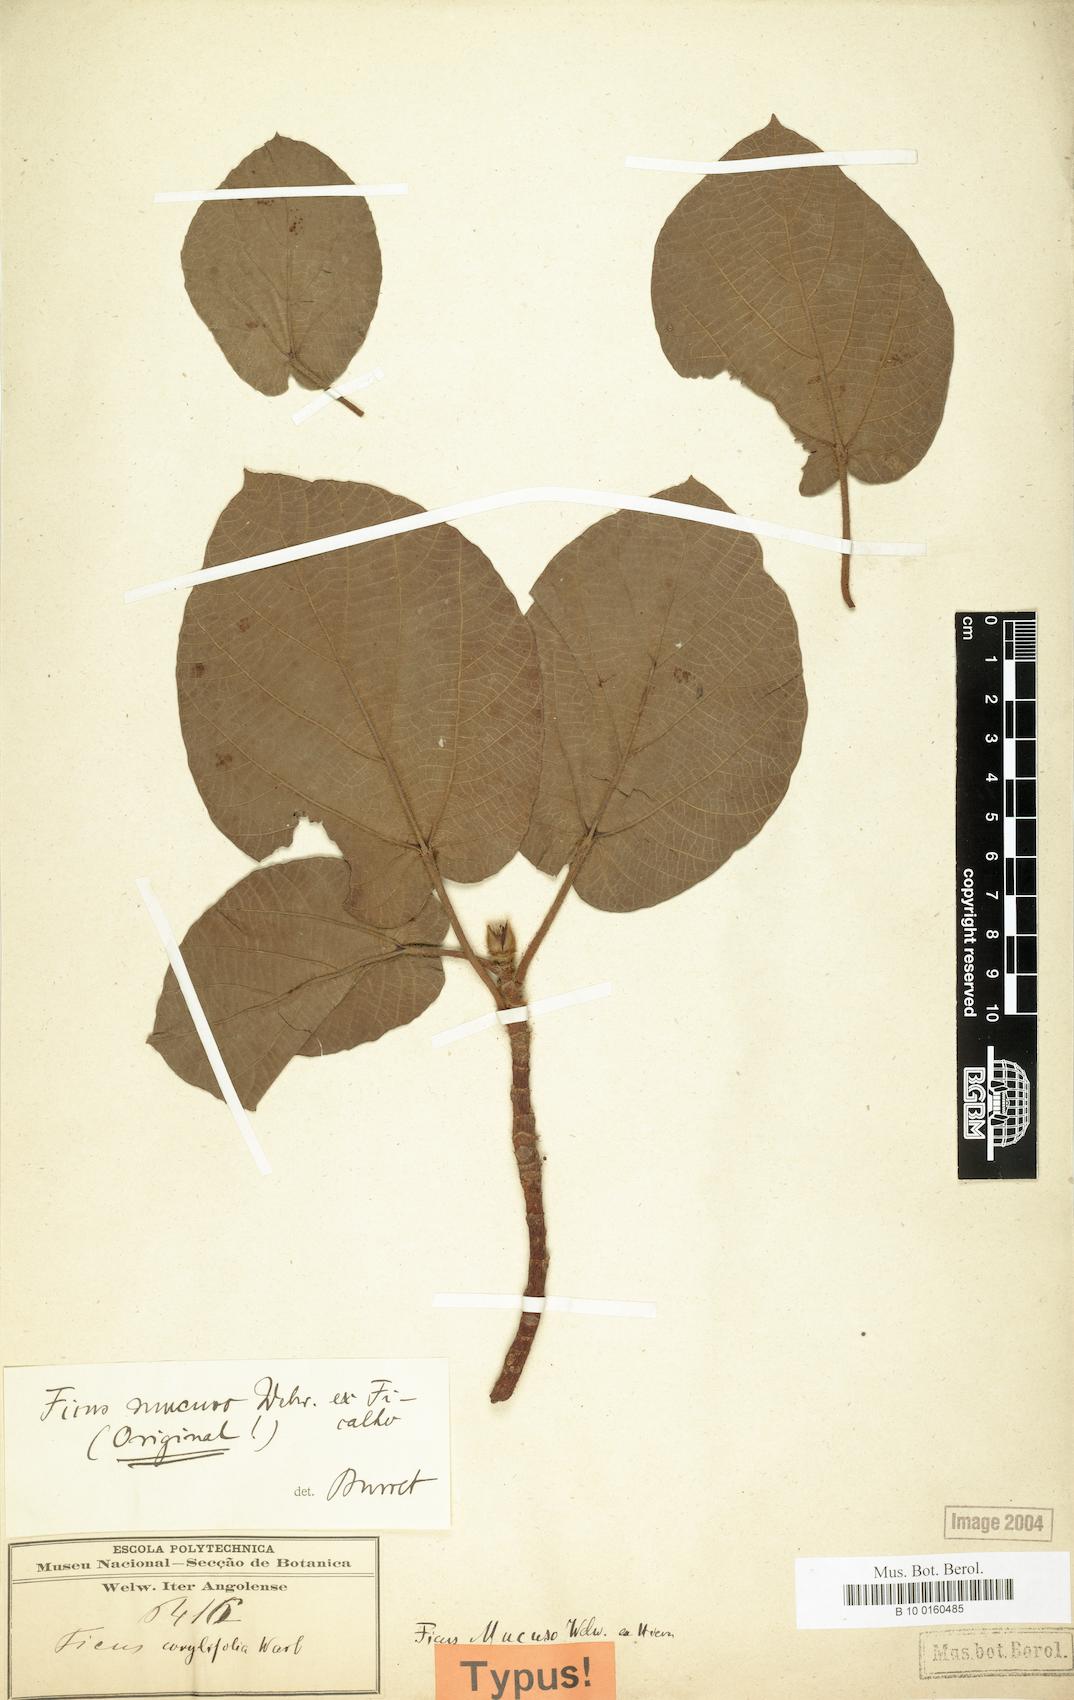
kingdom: Plantae
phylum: Tracheophyta
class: Magnoliopsida
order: Rosales
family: Moraceae
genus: Ficus
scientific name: Ficus mucuso
